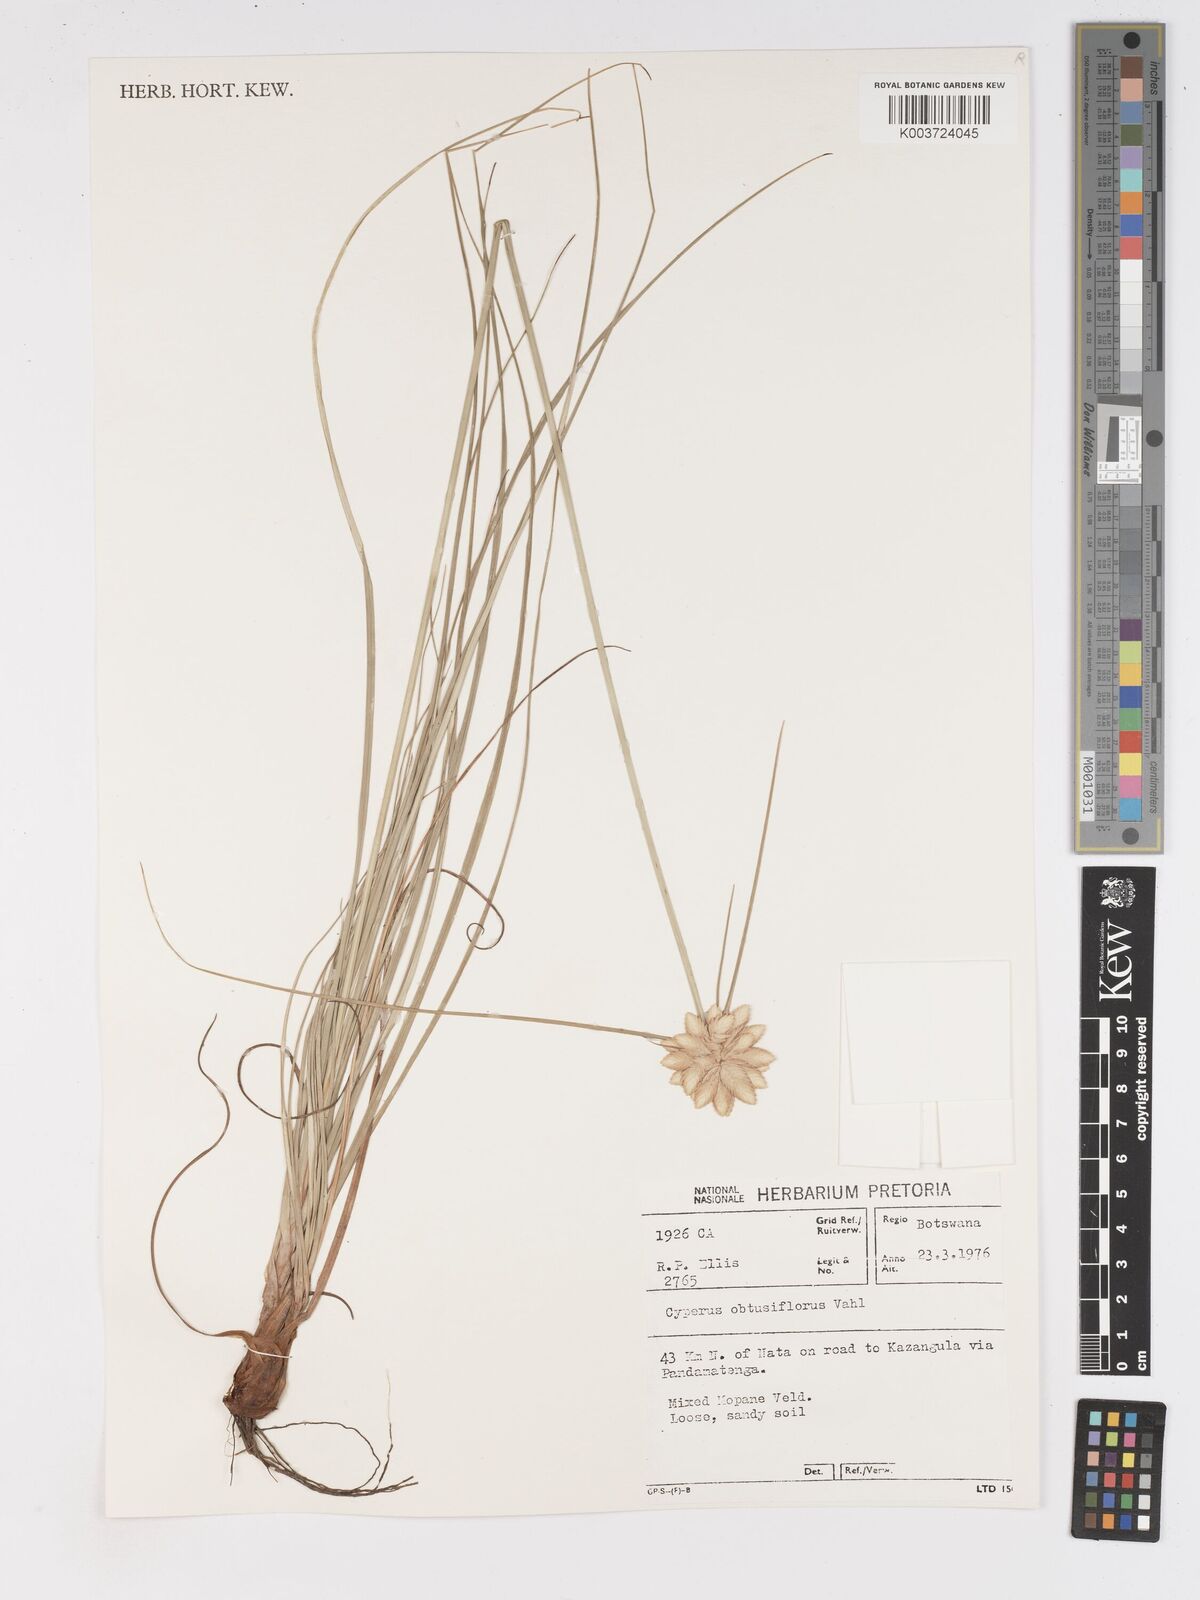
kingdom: Plantae
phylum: Tracheophyta
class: Liliopsida
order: Poales
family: Cyperaceae
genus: Cyperus
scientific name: Cyperus niveus
